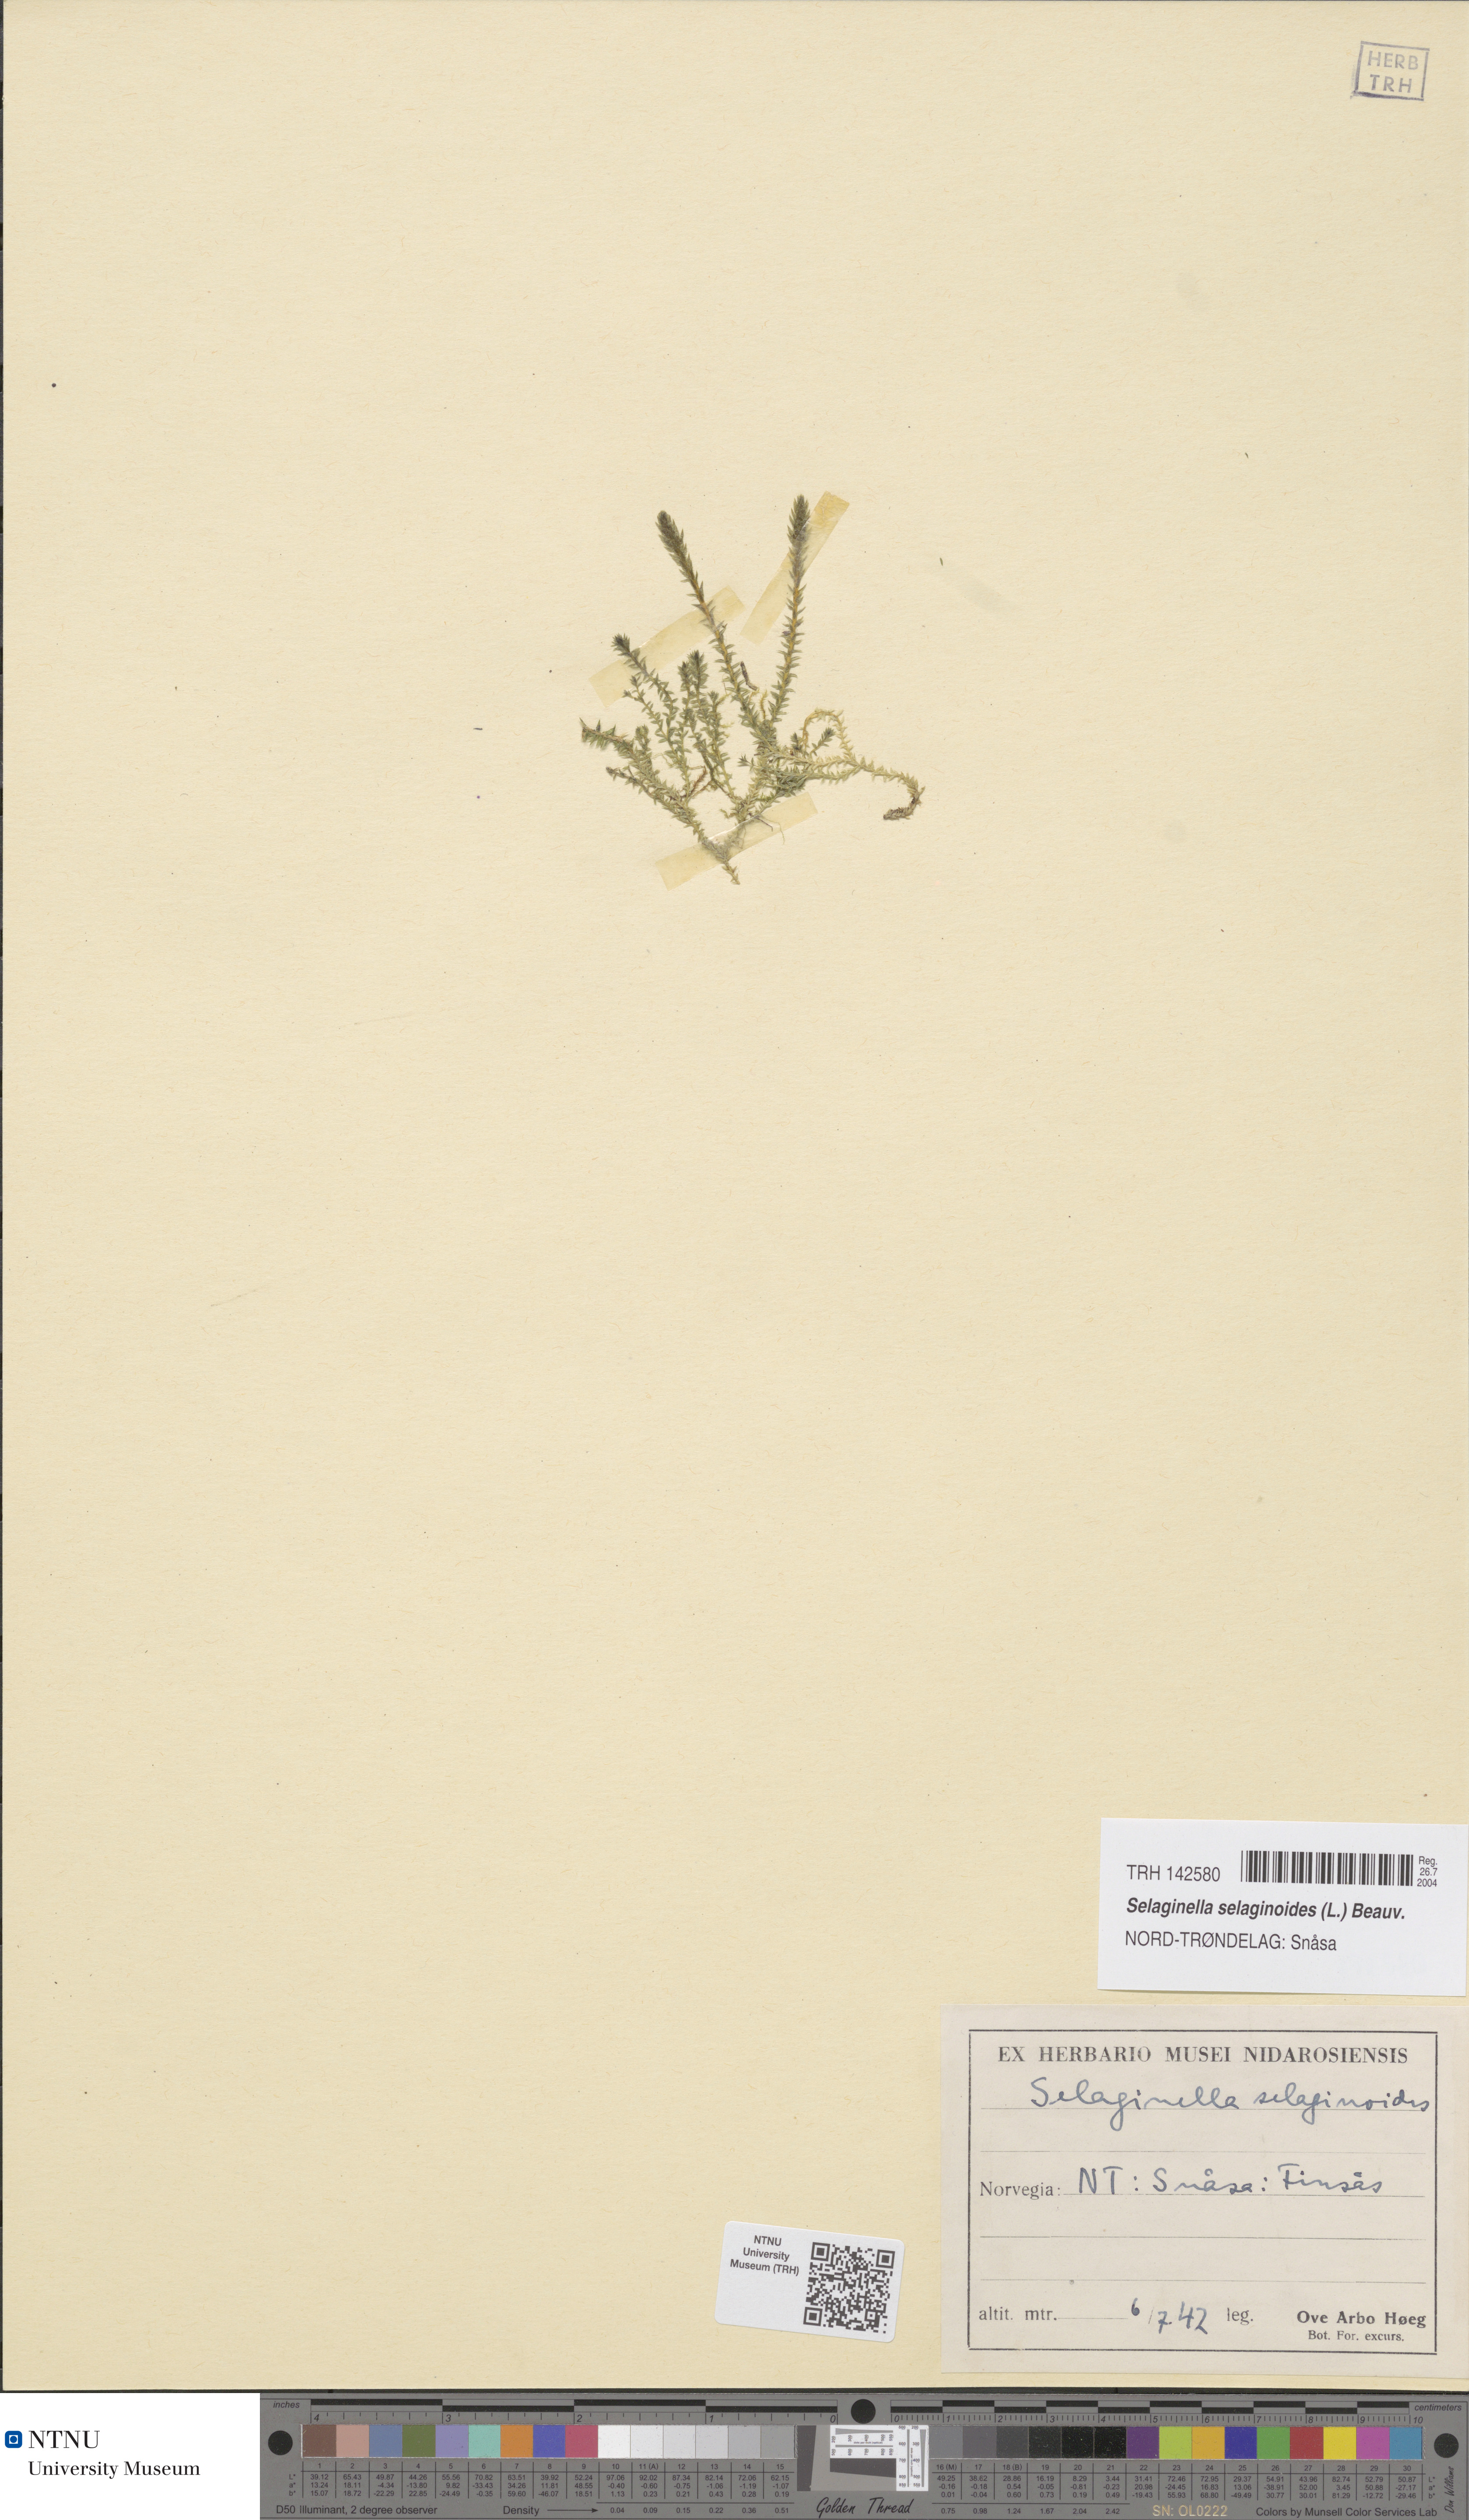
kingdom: Plantae
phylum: Tracheophyta
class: Lycopodiopsida
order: Selaginellales
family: Selaginellaceae
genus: Selaginella
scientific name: Selaginella selaginoides
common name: Prickly mountain-moss
